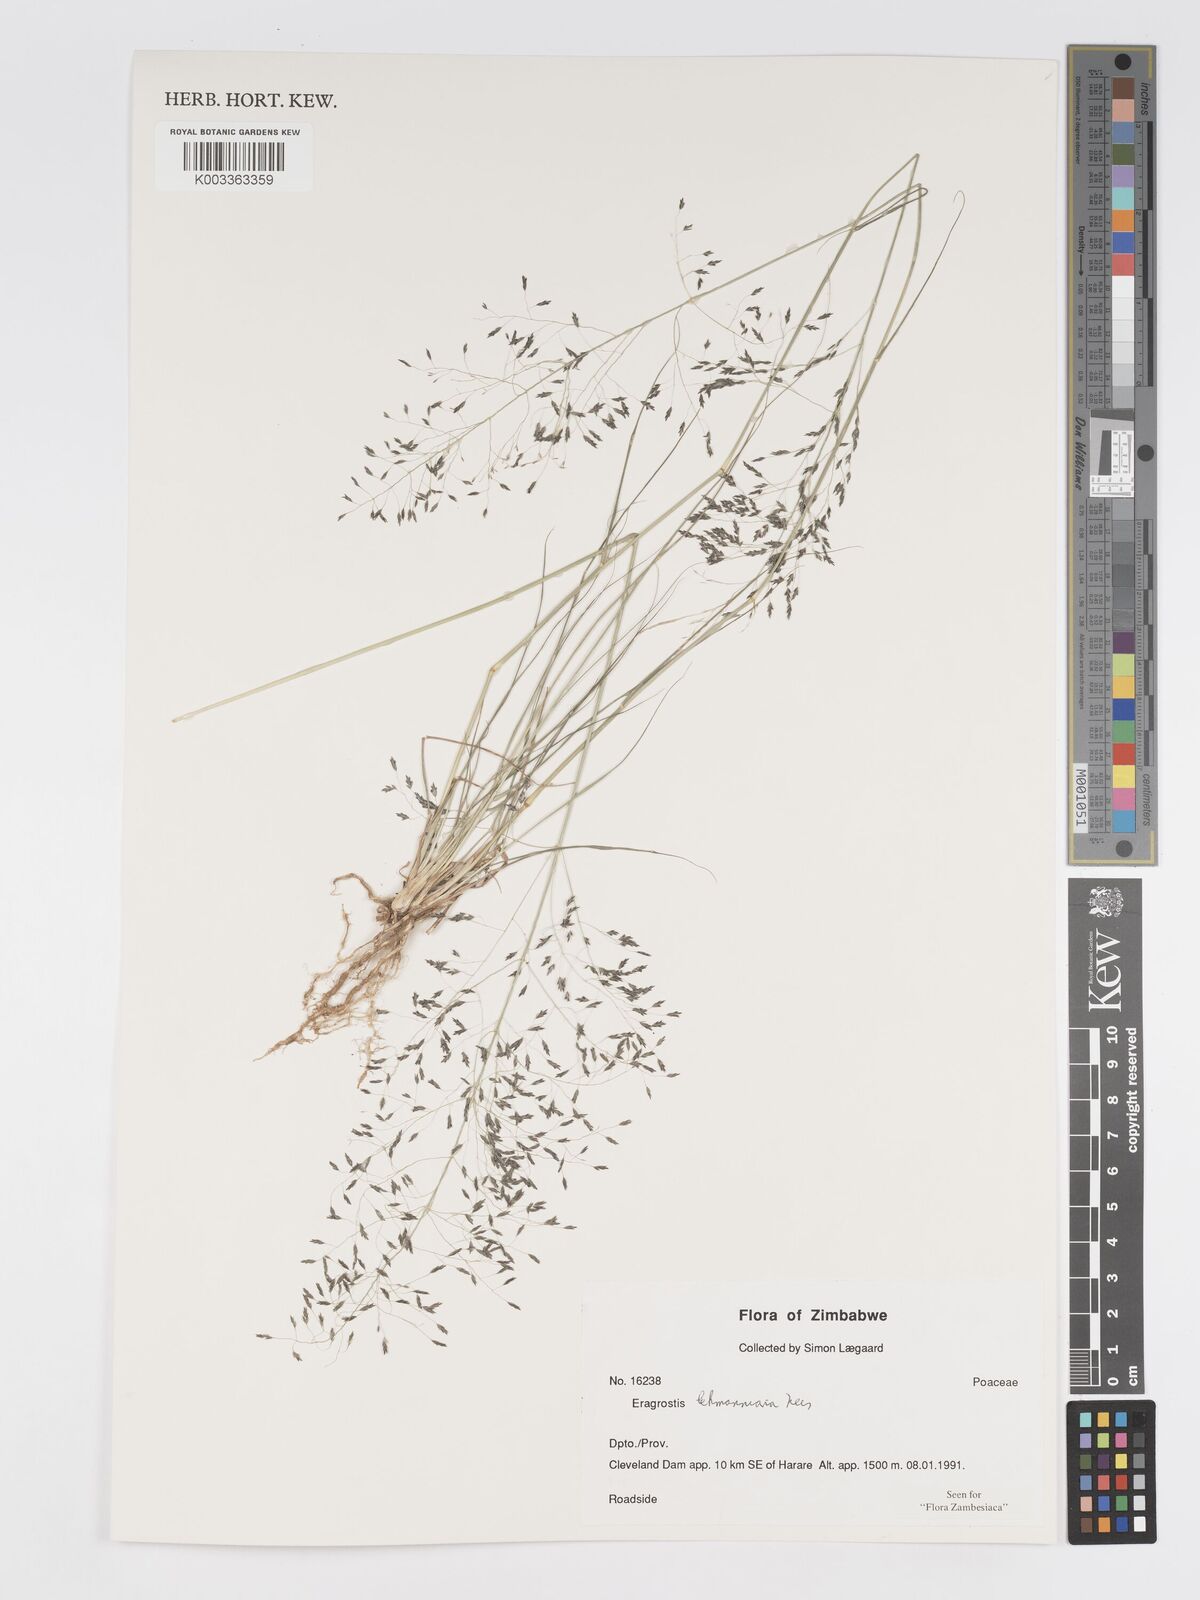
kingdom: Plantae
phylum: Tracheophyta
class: Liliopsida
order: Poales
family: Poaceae
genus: Eragrostis
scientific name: Eragrostis lehmanniana
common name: Lehmann lovegrass
